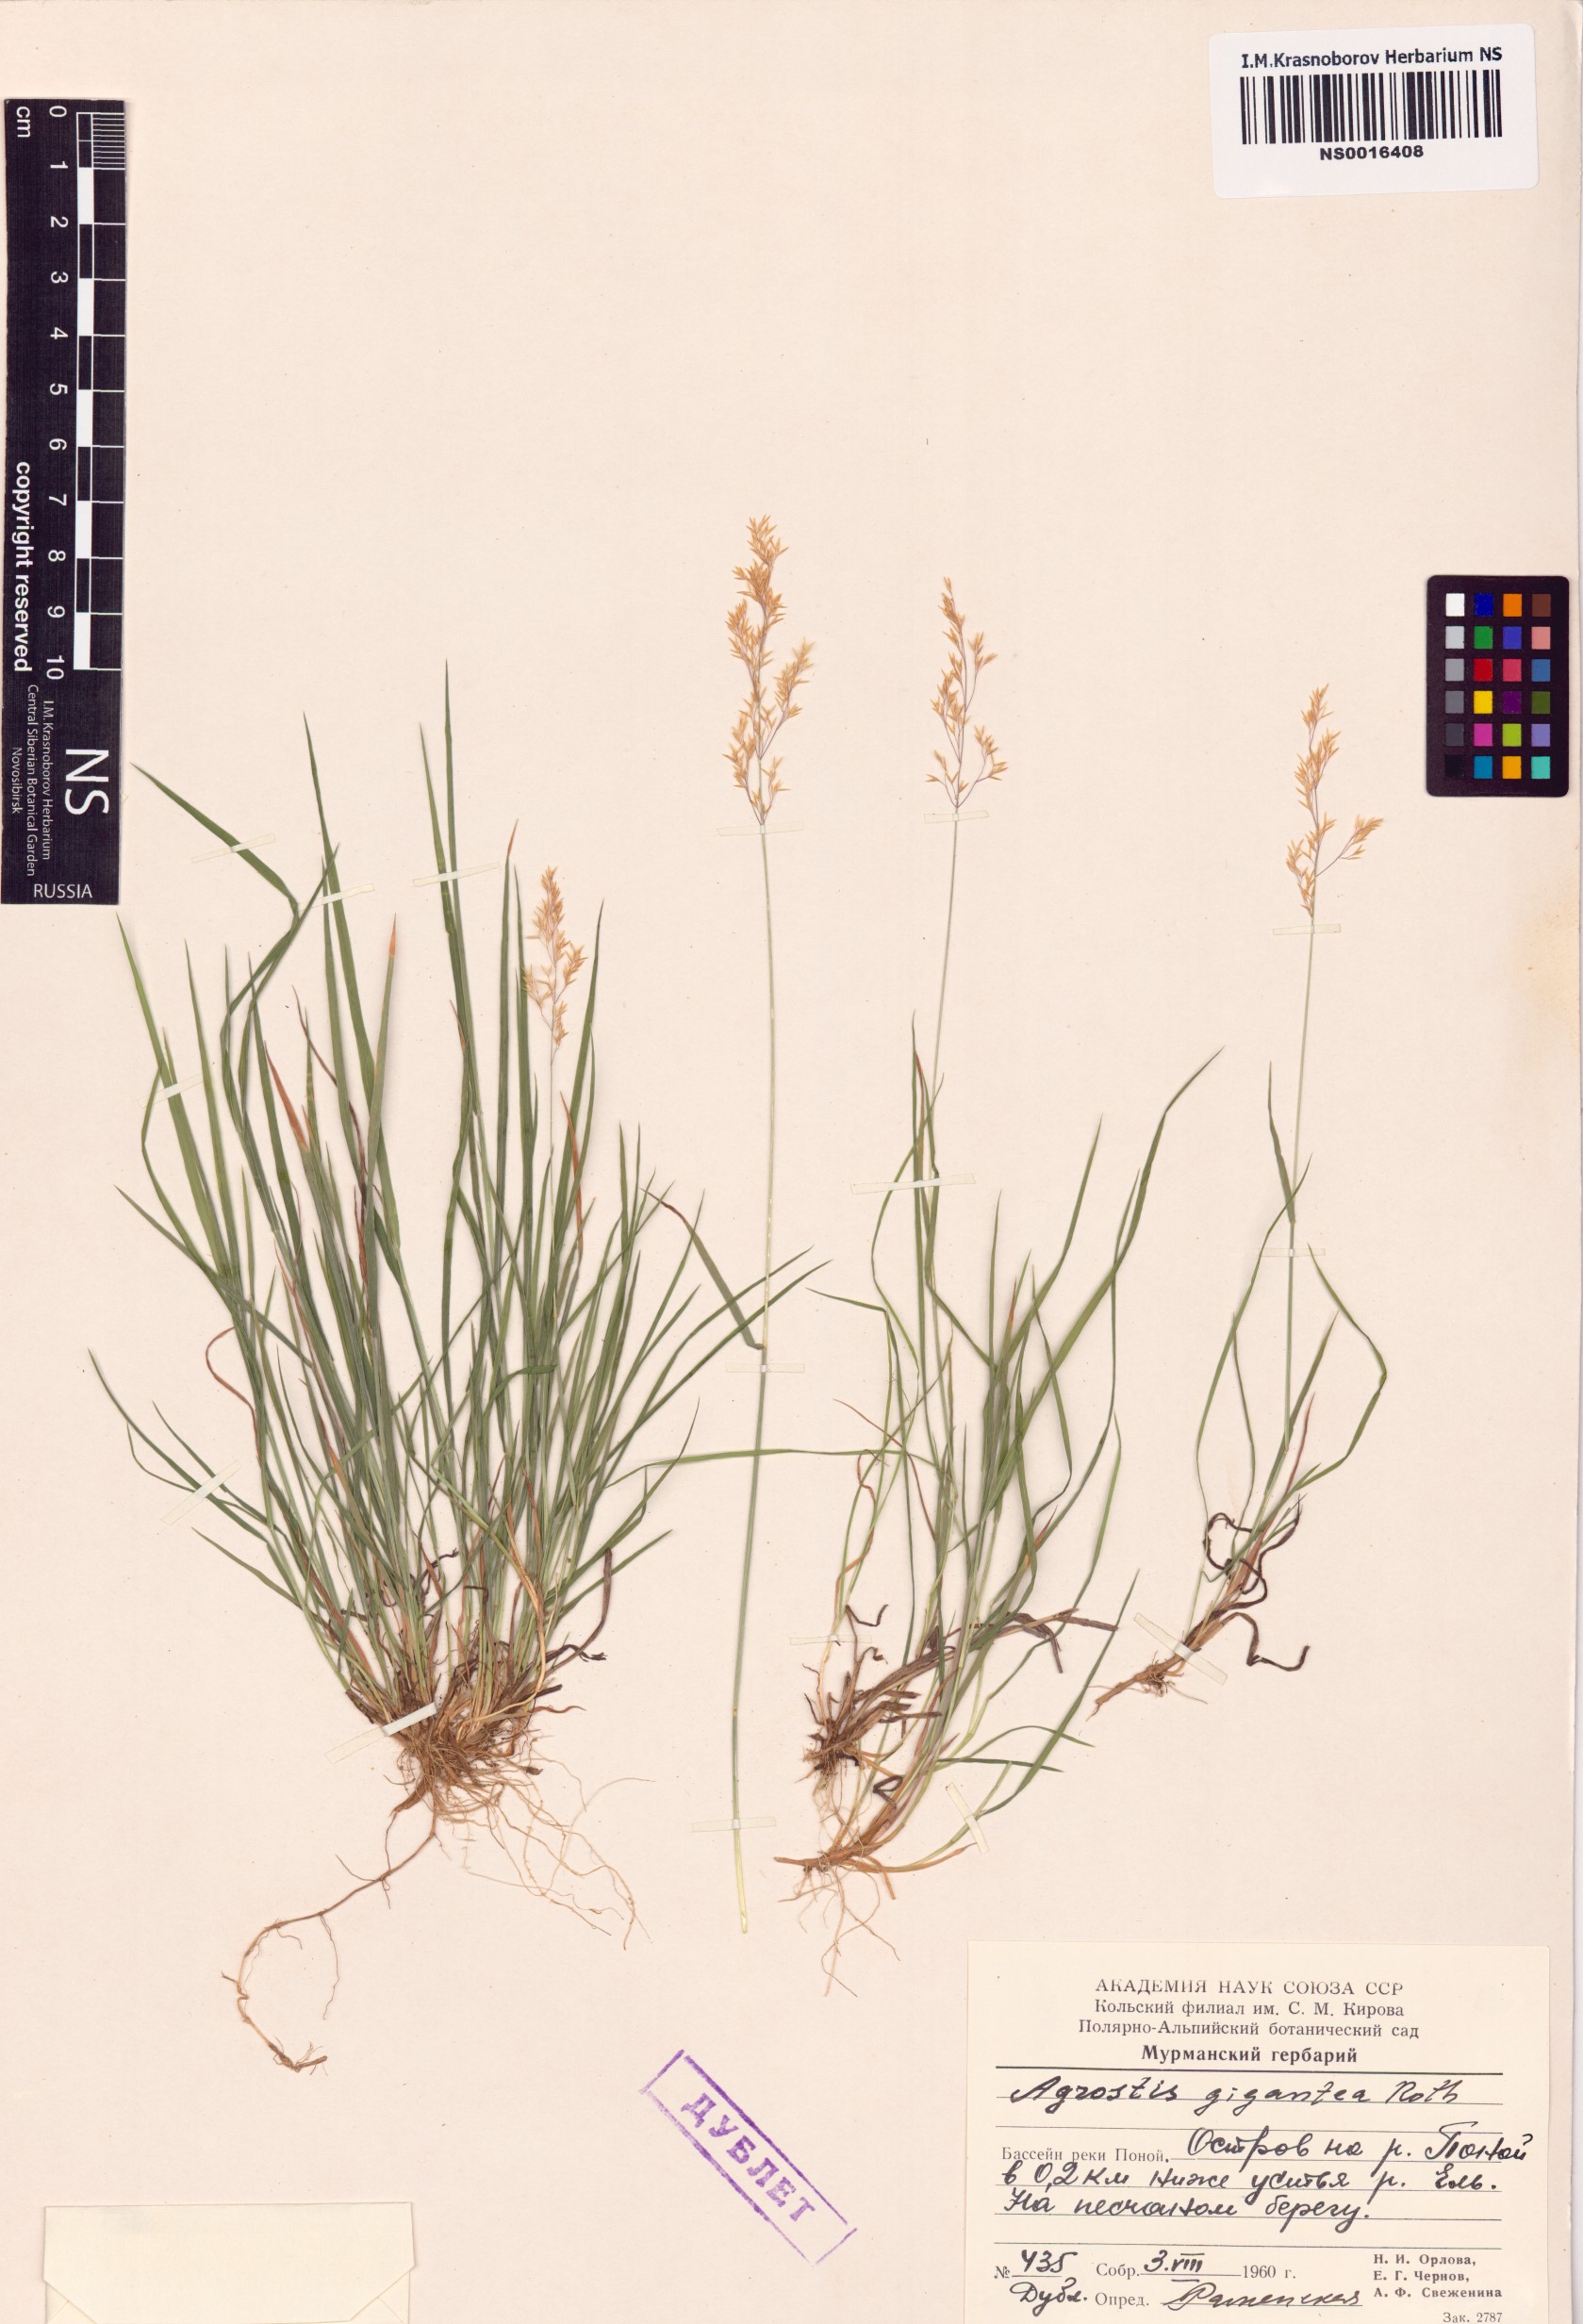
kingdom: Plantae
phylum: Tracheophyta
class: Liliopsida
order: Poales
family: Poaceae
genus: Agrostis
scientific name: Agrostis gigantea
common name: Black bent
